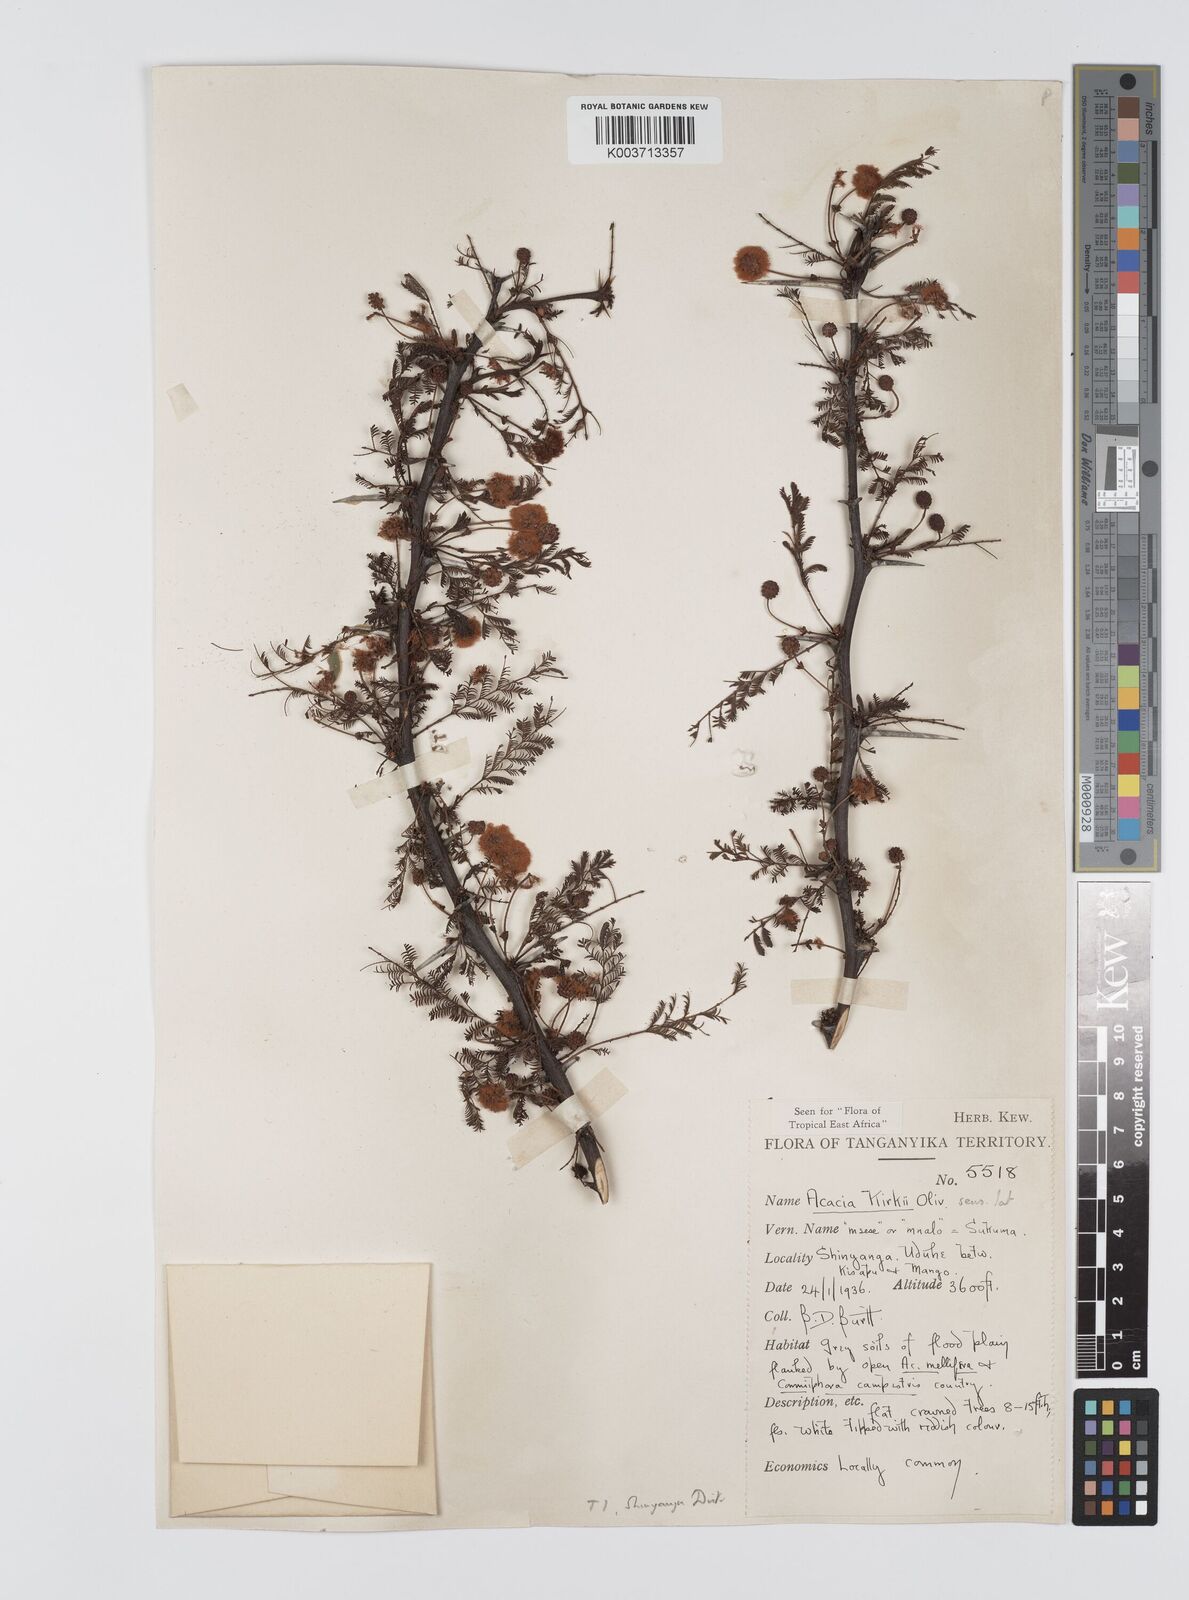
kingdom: Plantae
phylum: Tracheophyta
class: Magnoliopsida
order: Fabales
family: Fabaceae
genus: Vachellia
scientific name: Vachellia kirkii
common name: Flood-plain acacia
